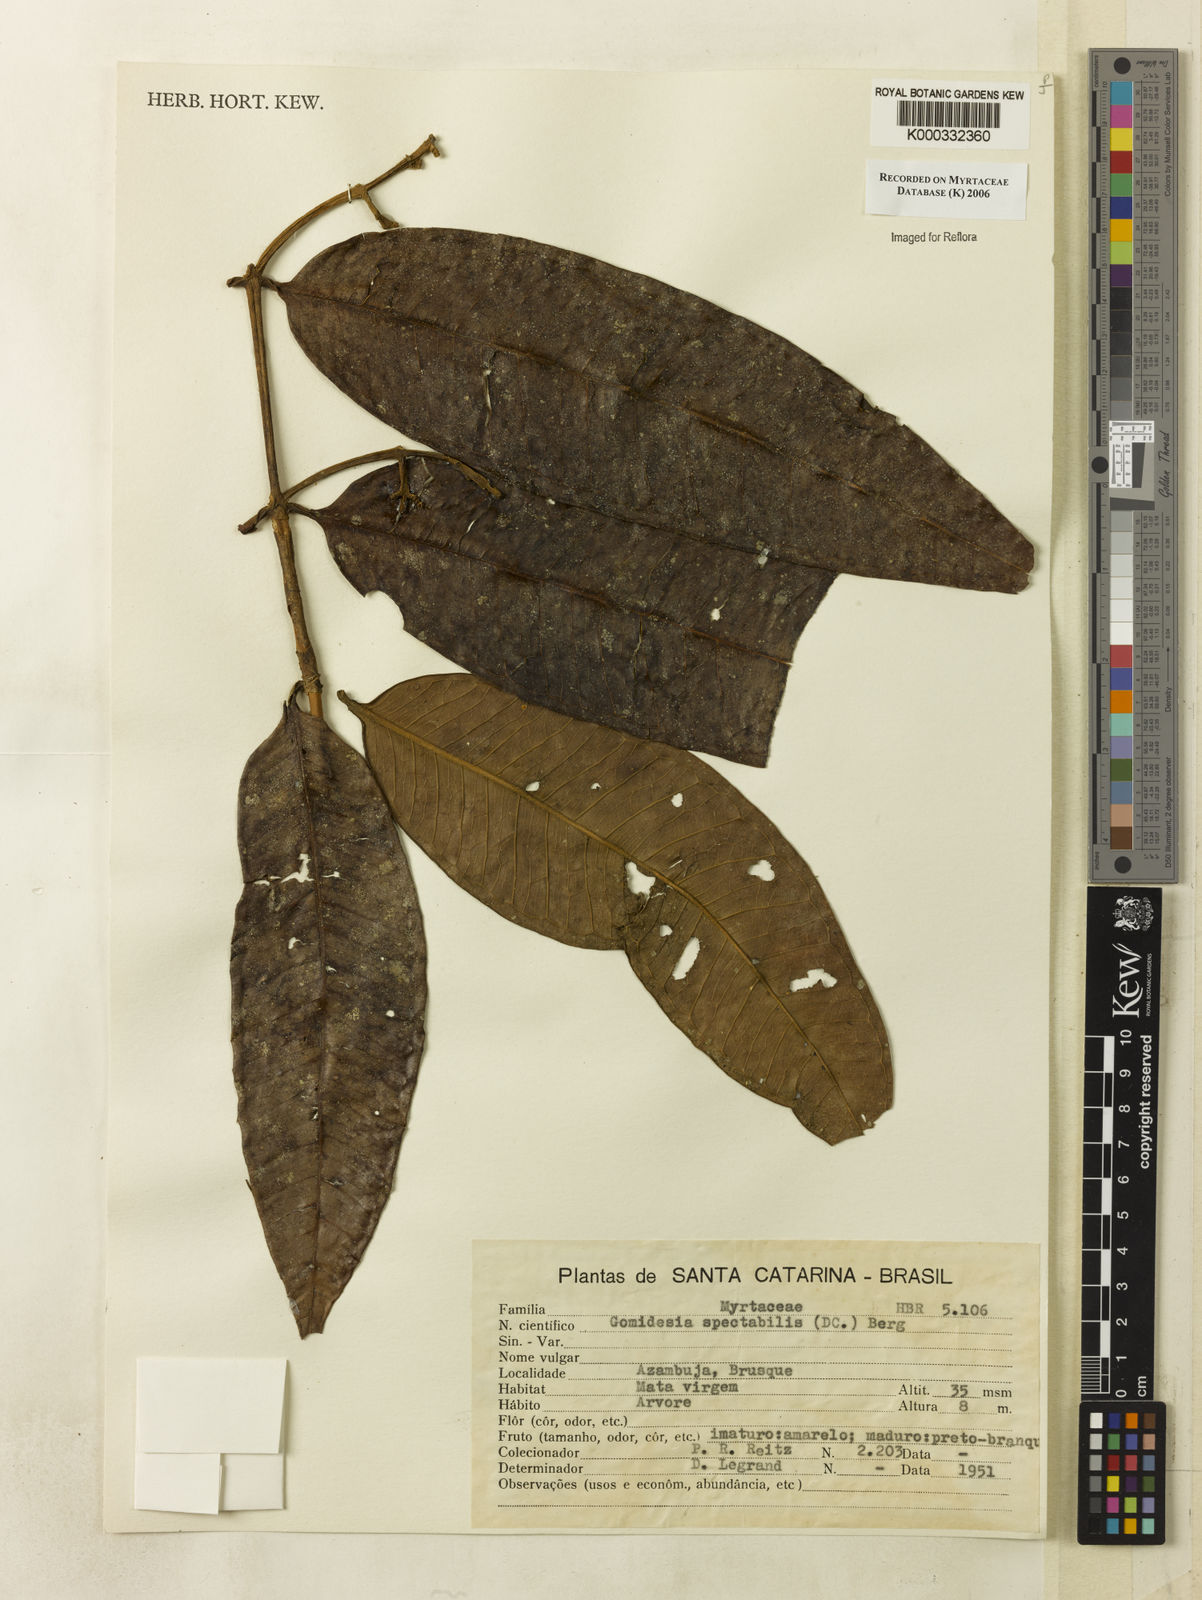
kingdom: Plantae
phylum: Tracheophyta
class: Magnoliopsida
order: Myrtales
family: Myrtaceae
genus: Myrcia
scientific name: Myrcia spectabilis
